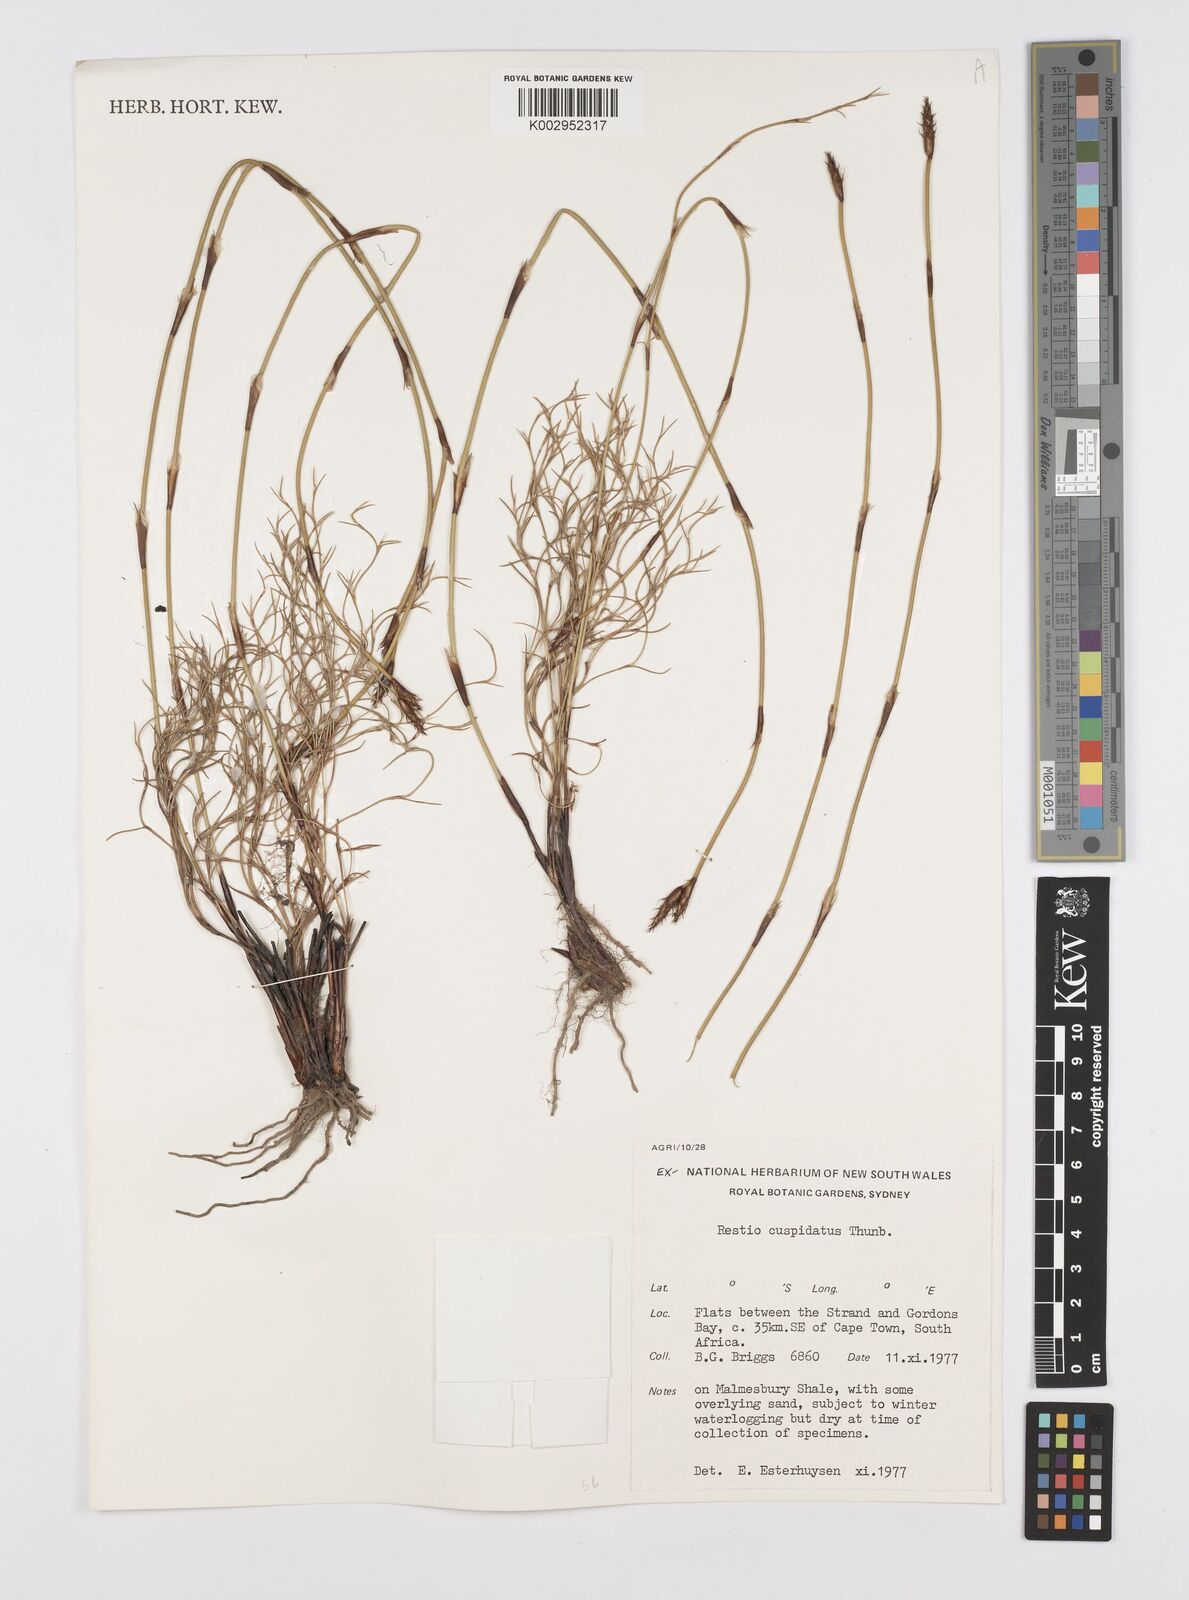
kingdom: Plantae
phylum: Tracheophyta
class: Liliopsida
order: Poales
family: Restionaceae
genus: Restio
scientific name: Restio capensis
